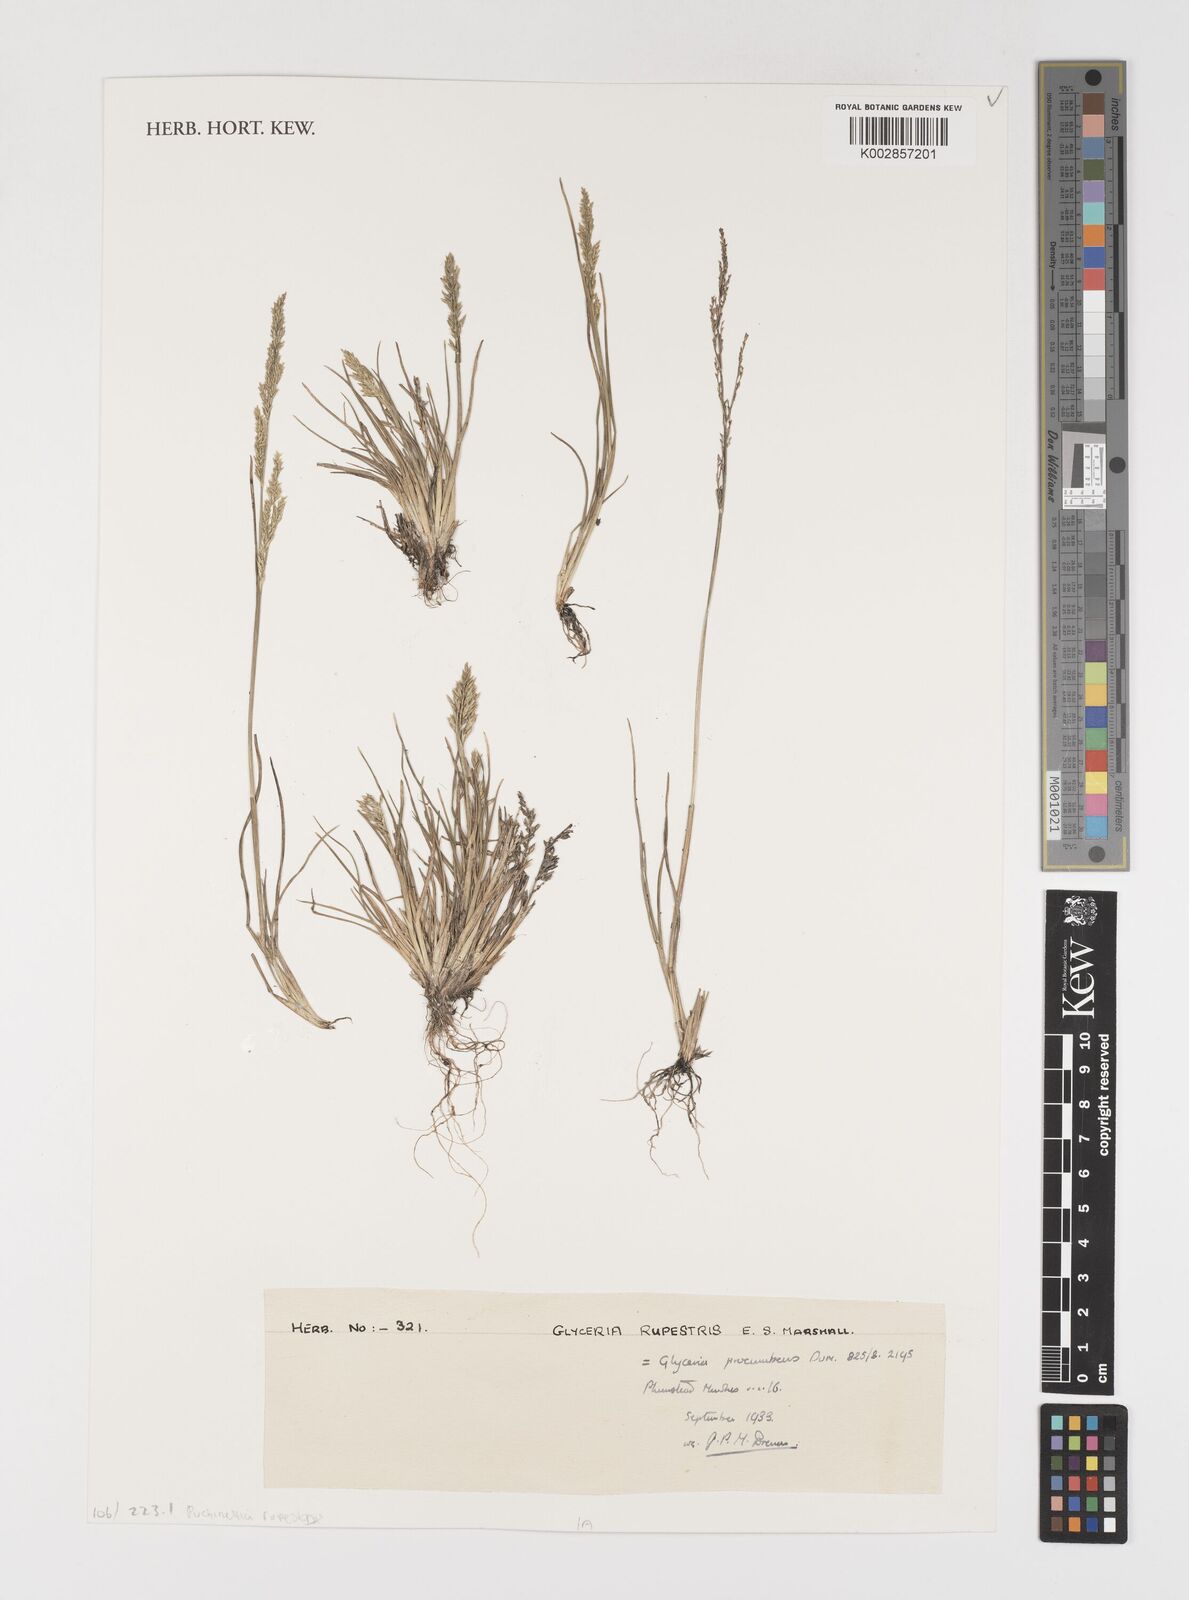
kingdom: Plantae
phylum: Tracheophyta
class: Liliopsida
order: Poales
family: Poaceae
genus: Puccinellia
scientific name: Puccinellia rupestris
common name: Stiff saltmarsh-grass
